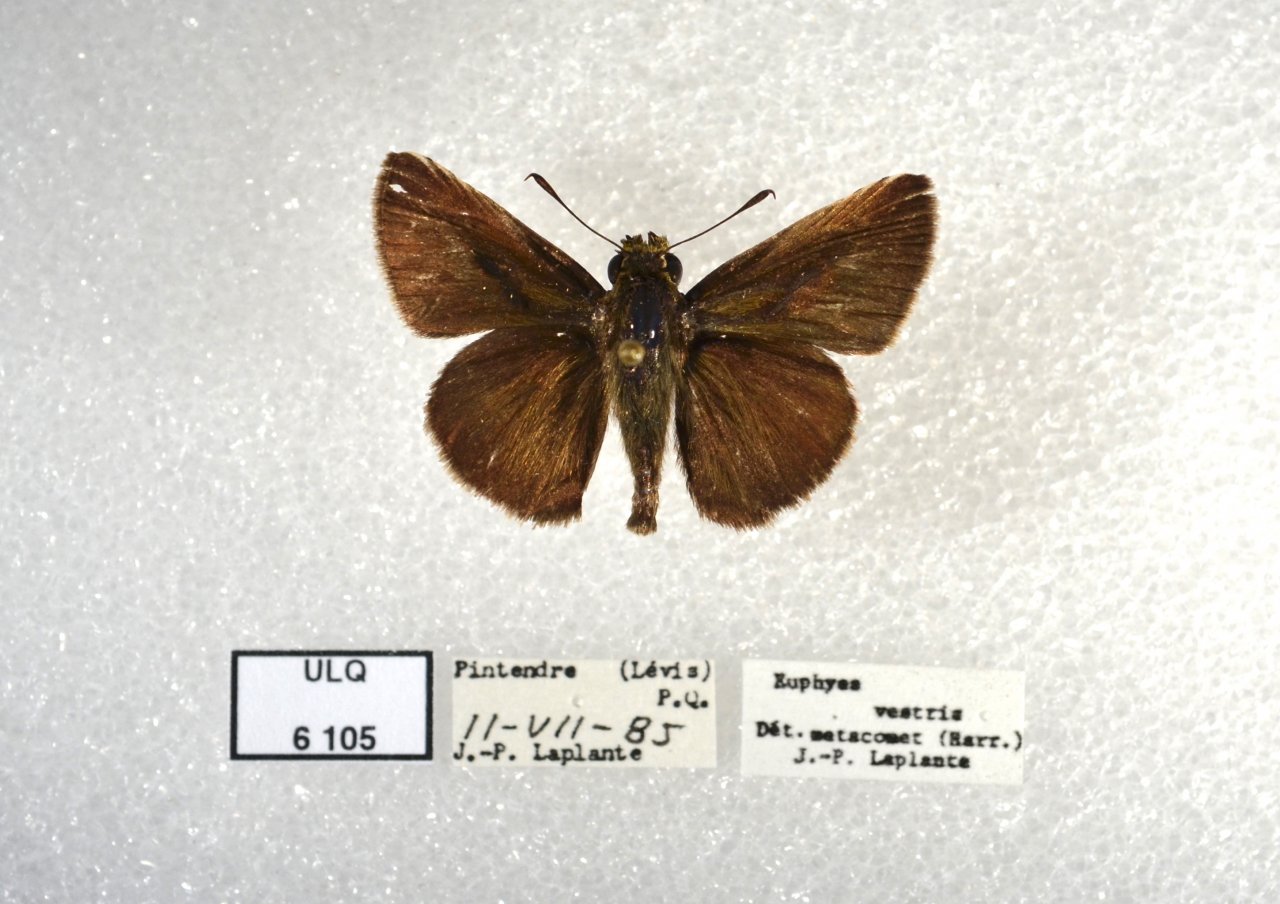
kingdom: Animalia
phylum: Arthropoda
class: Insecta
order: Lepidoptera
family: Hesperiidae
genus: Euphyes
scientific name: Euphyes vestris
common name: Dun Skipper
